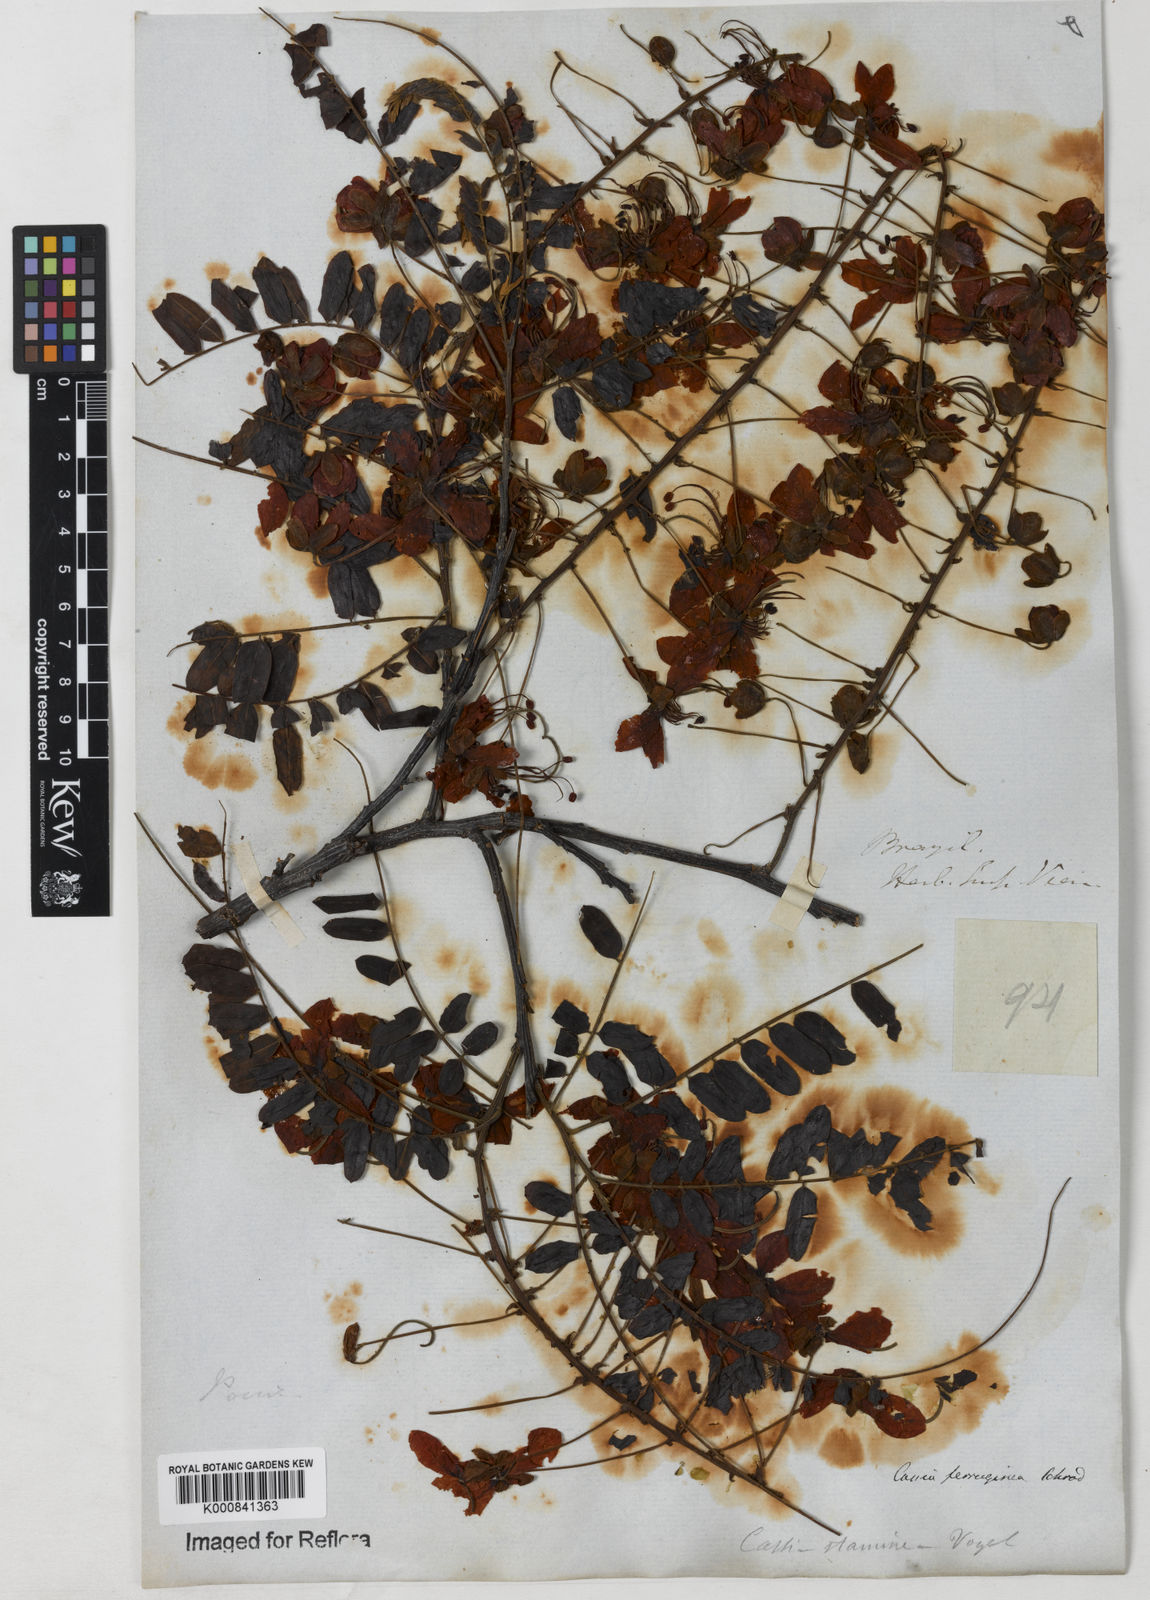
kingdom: Plantae
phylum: Tracheophyta
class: Magnoliopsida
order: Fabales
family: Fabaceae
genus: Cassia
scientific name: Cassia ferruginea
